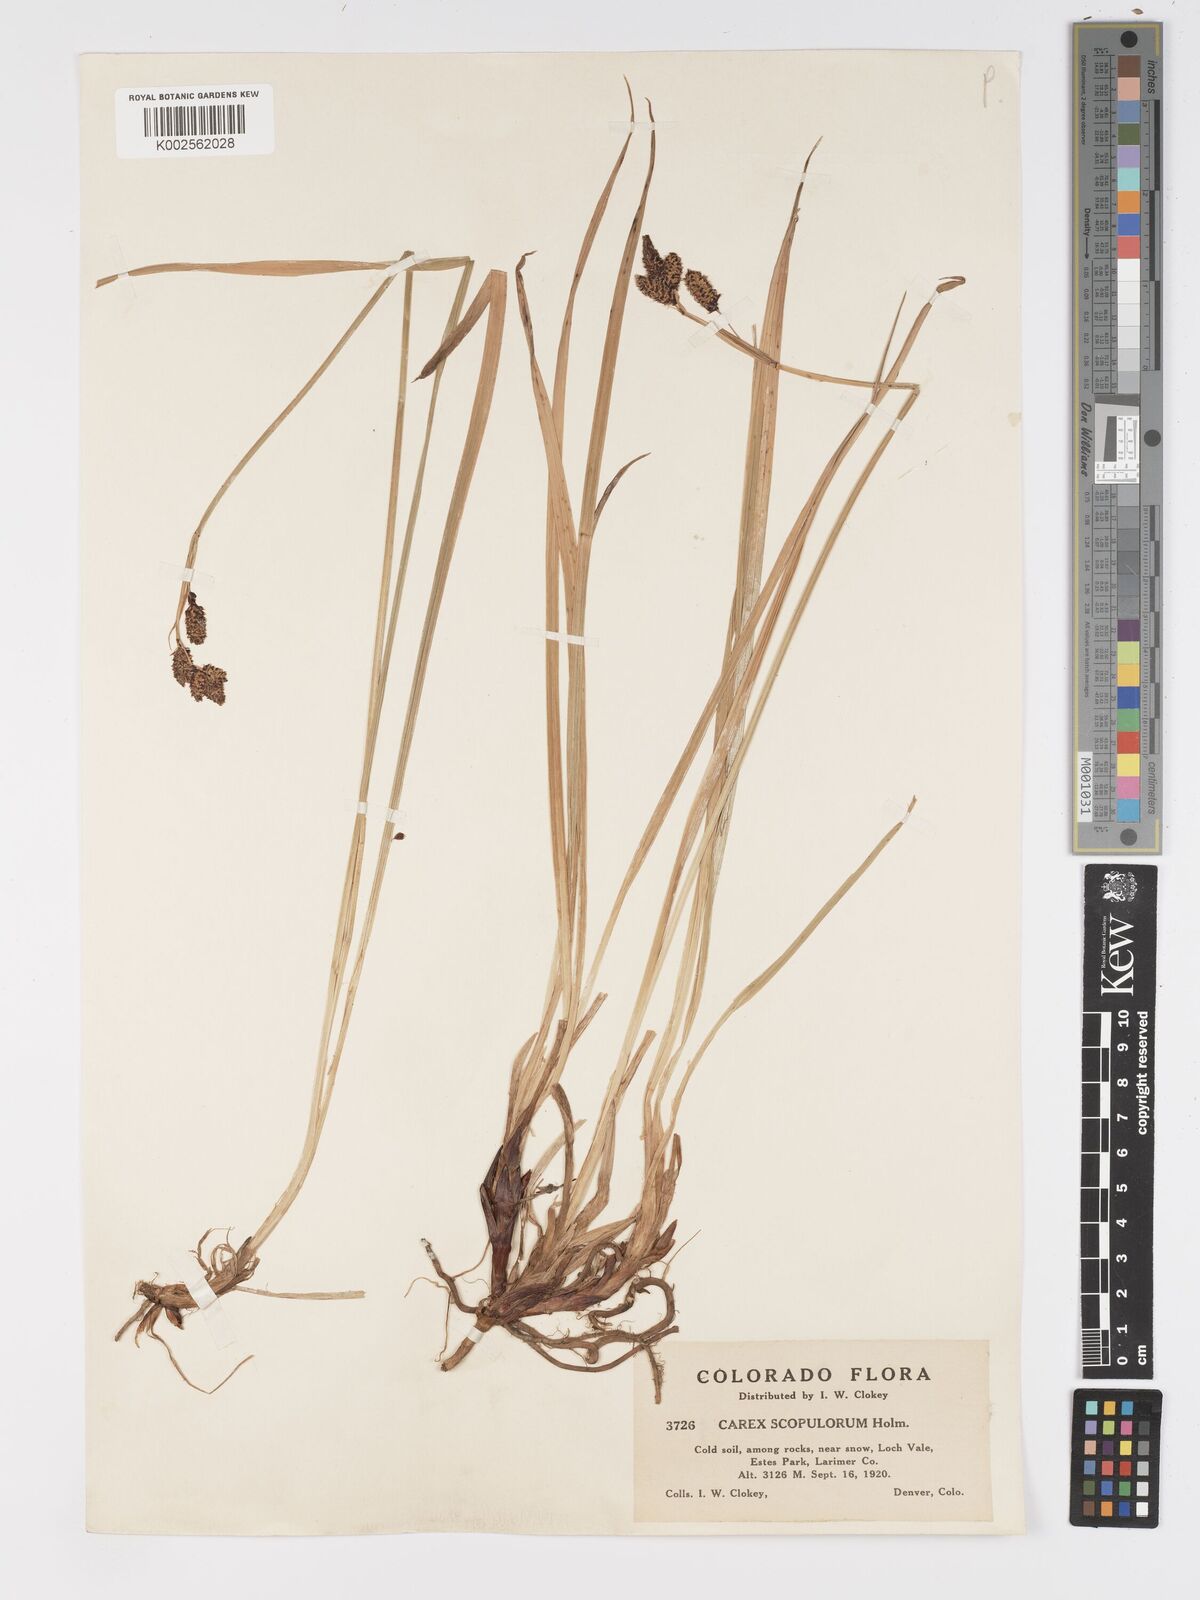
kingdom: Plantae
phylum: Tracheophyta
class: Liliopsida
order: Poales
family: Cyperaceae
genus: Carex
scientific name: Carex scopulorum
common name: Holm's rocky mountain sedge
